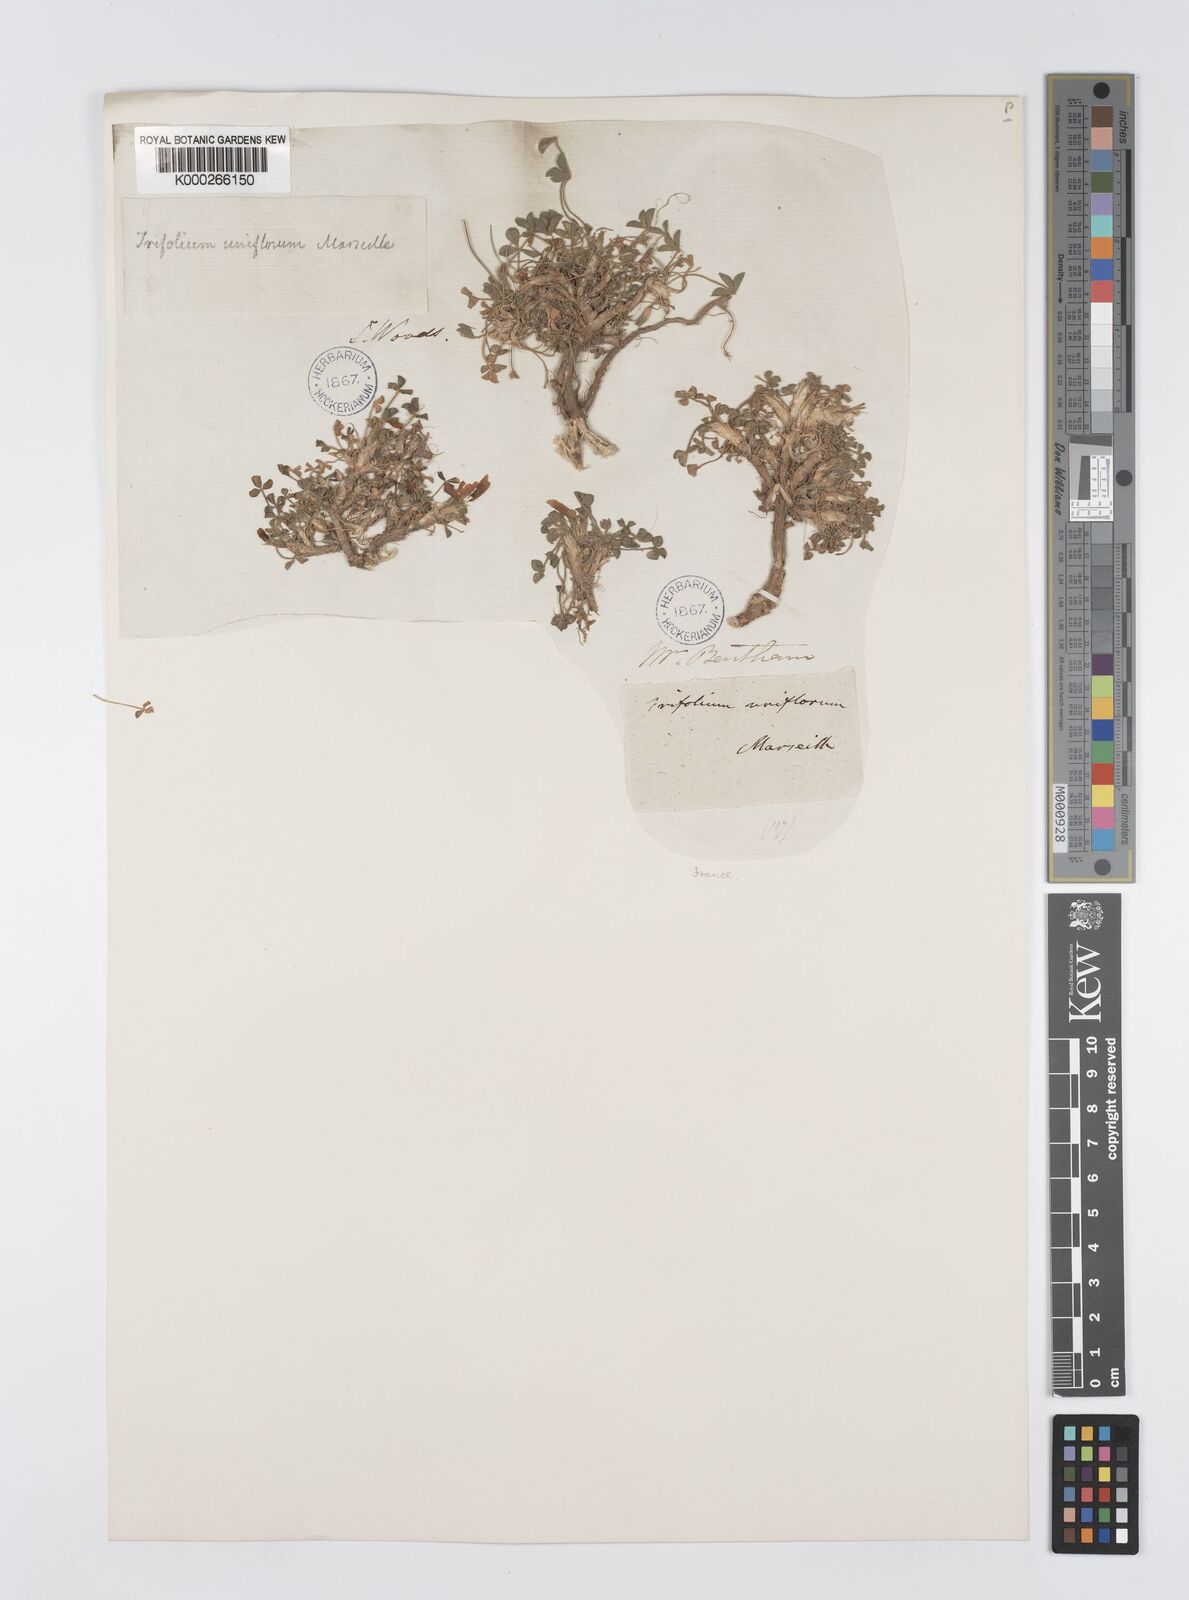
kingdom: Plantae
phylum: Tracheophyta
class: Magnoliopsida
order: Fabales
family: Fabaceae
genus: Trifolium
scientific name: Trifolium uniflorum
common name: One-flower clover
